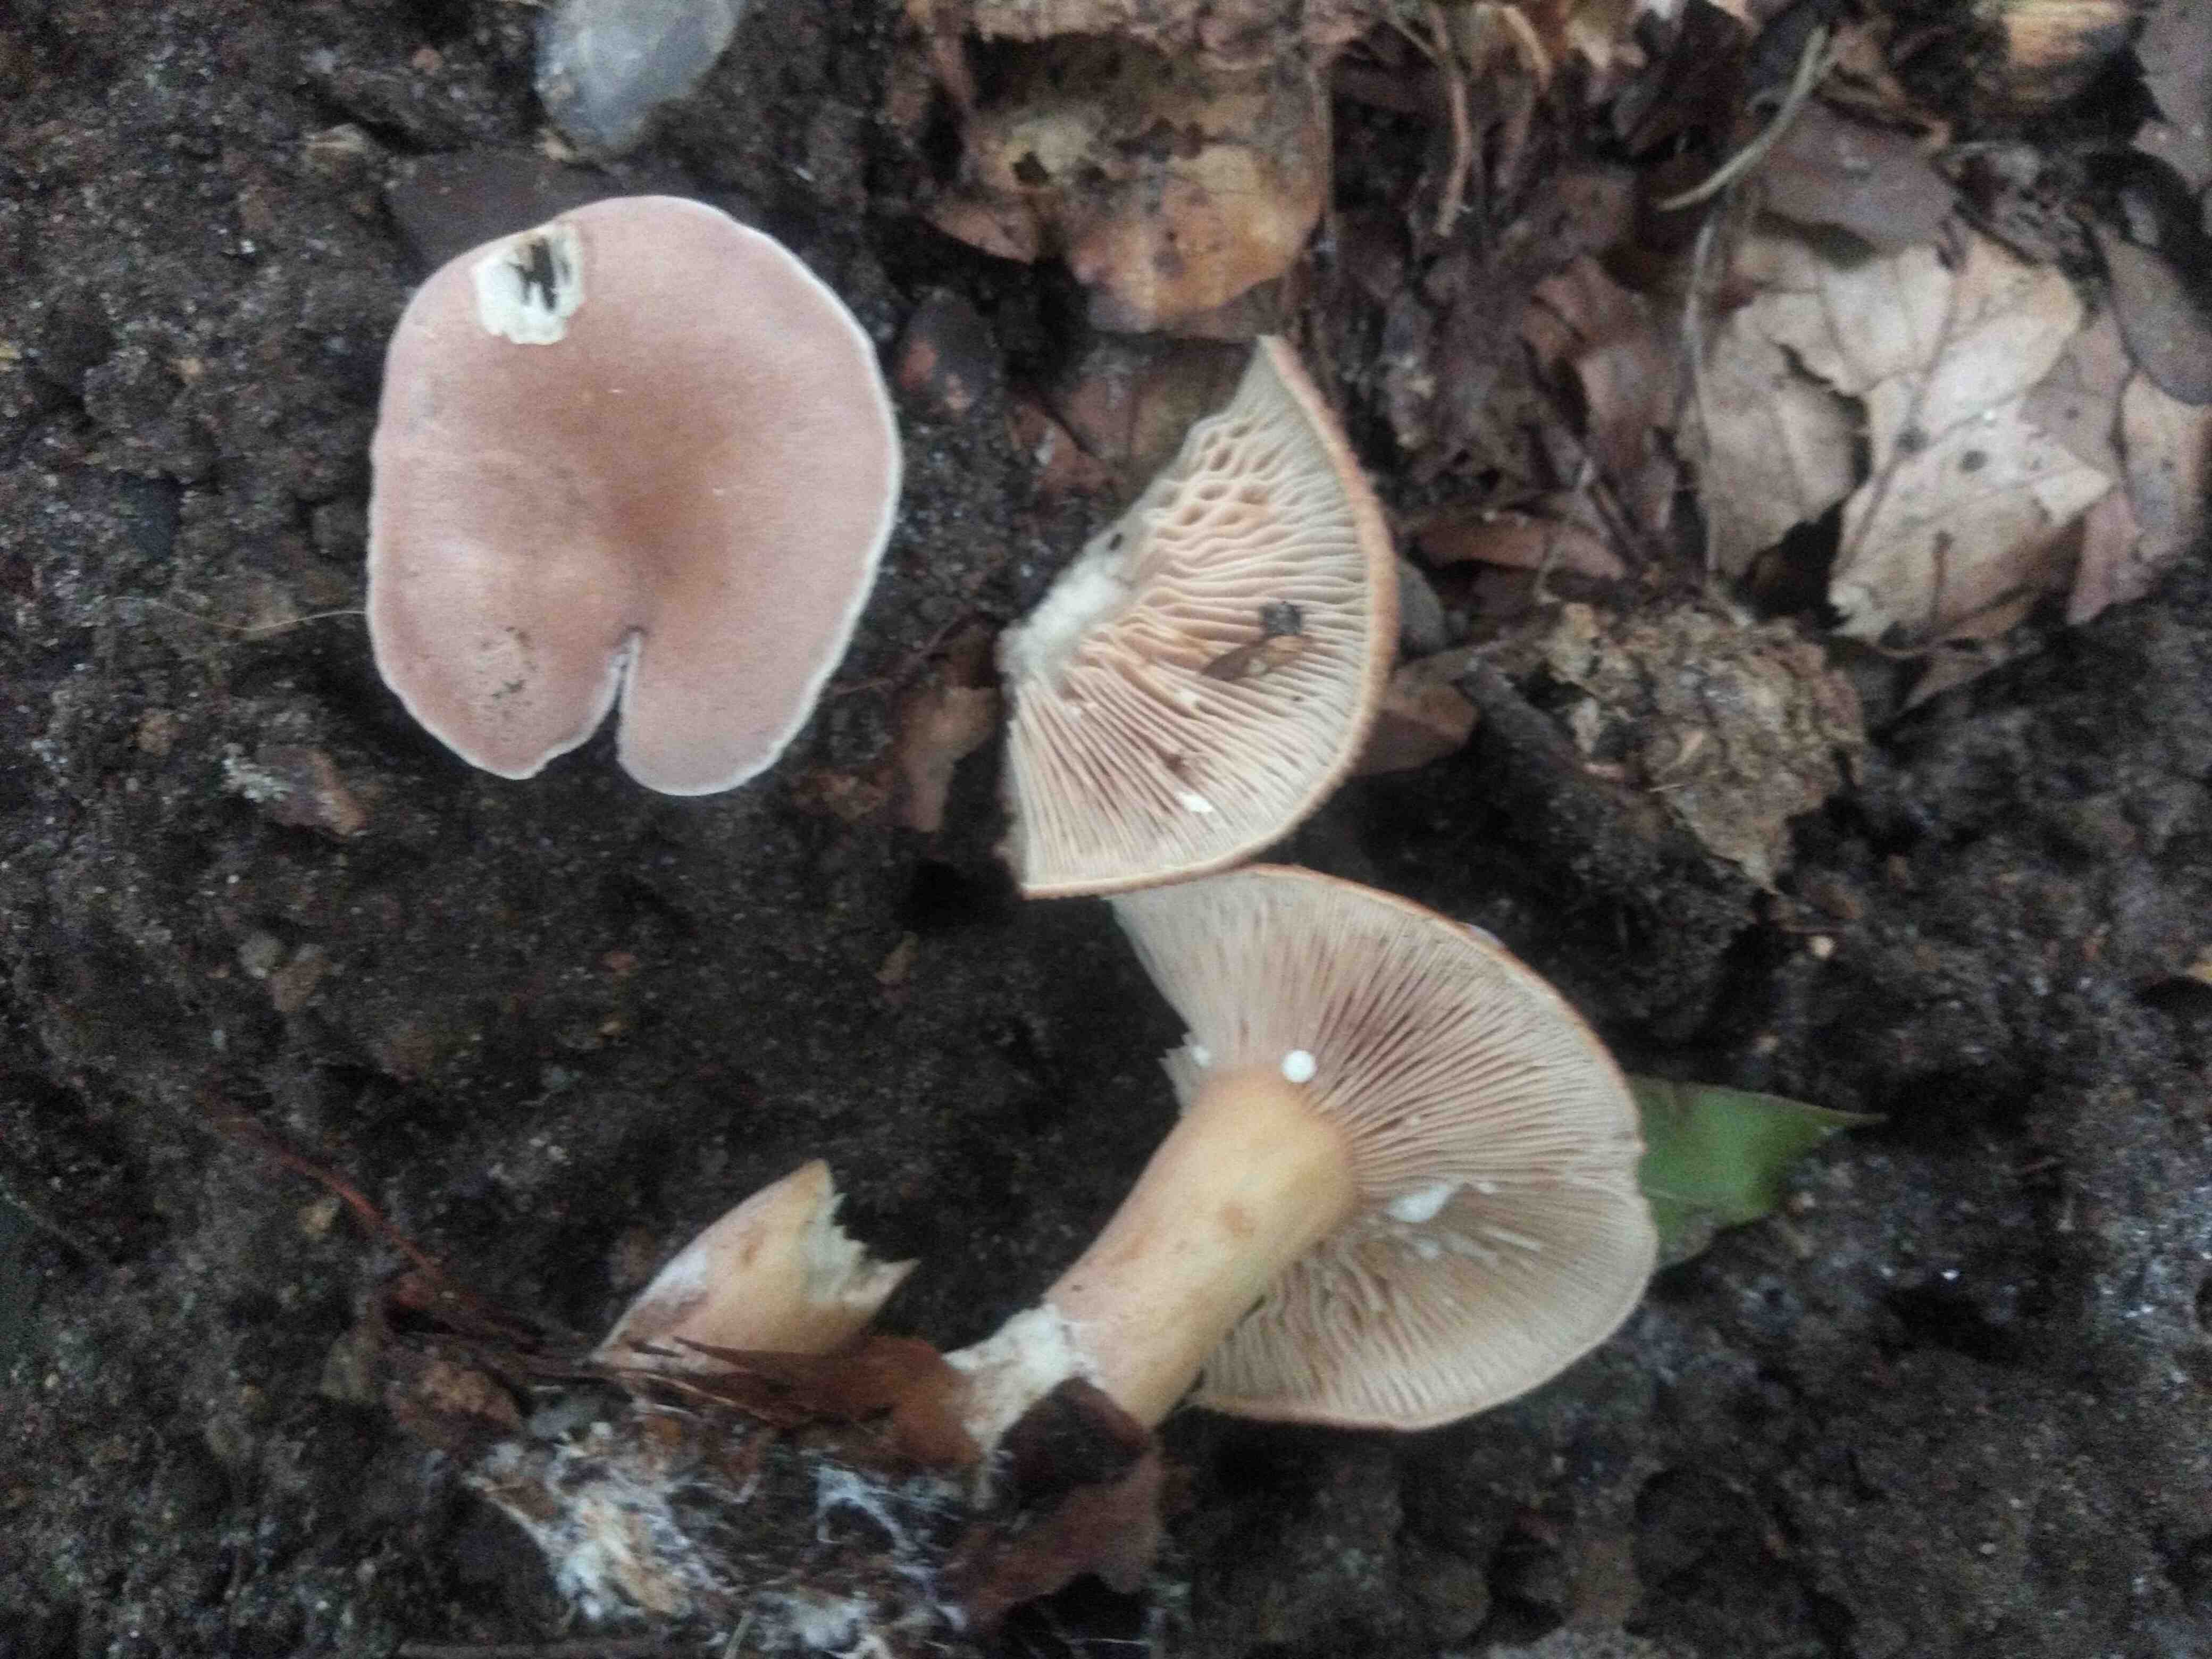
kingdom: Fungi
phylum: Basidiomycota
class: Agaricomycetes
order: Russulales
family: Russulaceae
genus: Lactarius
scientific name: Lactarius
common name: mælkehat
